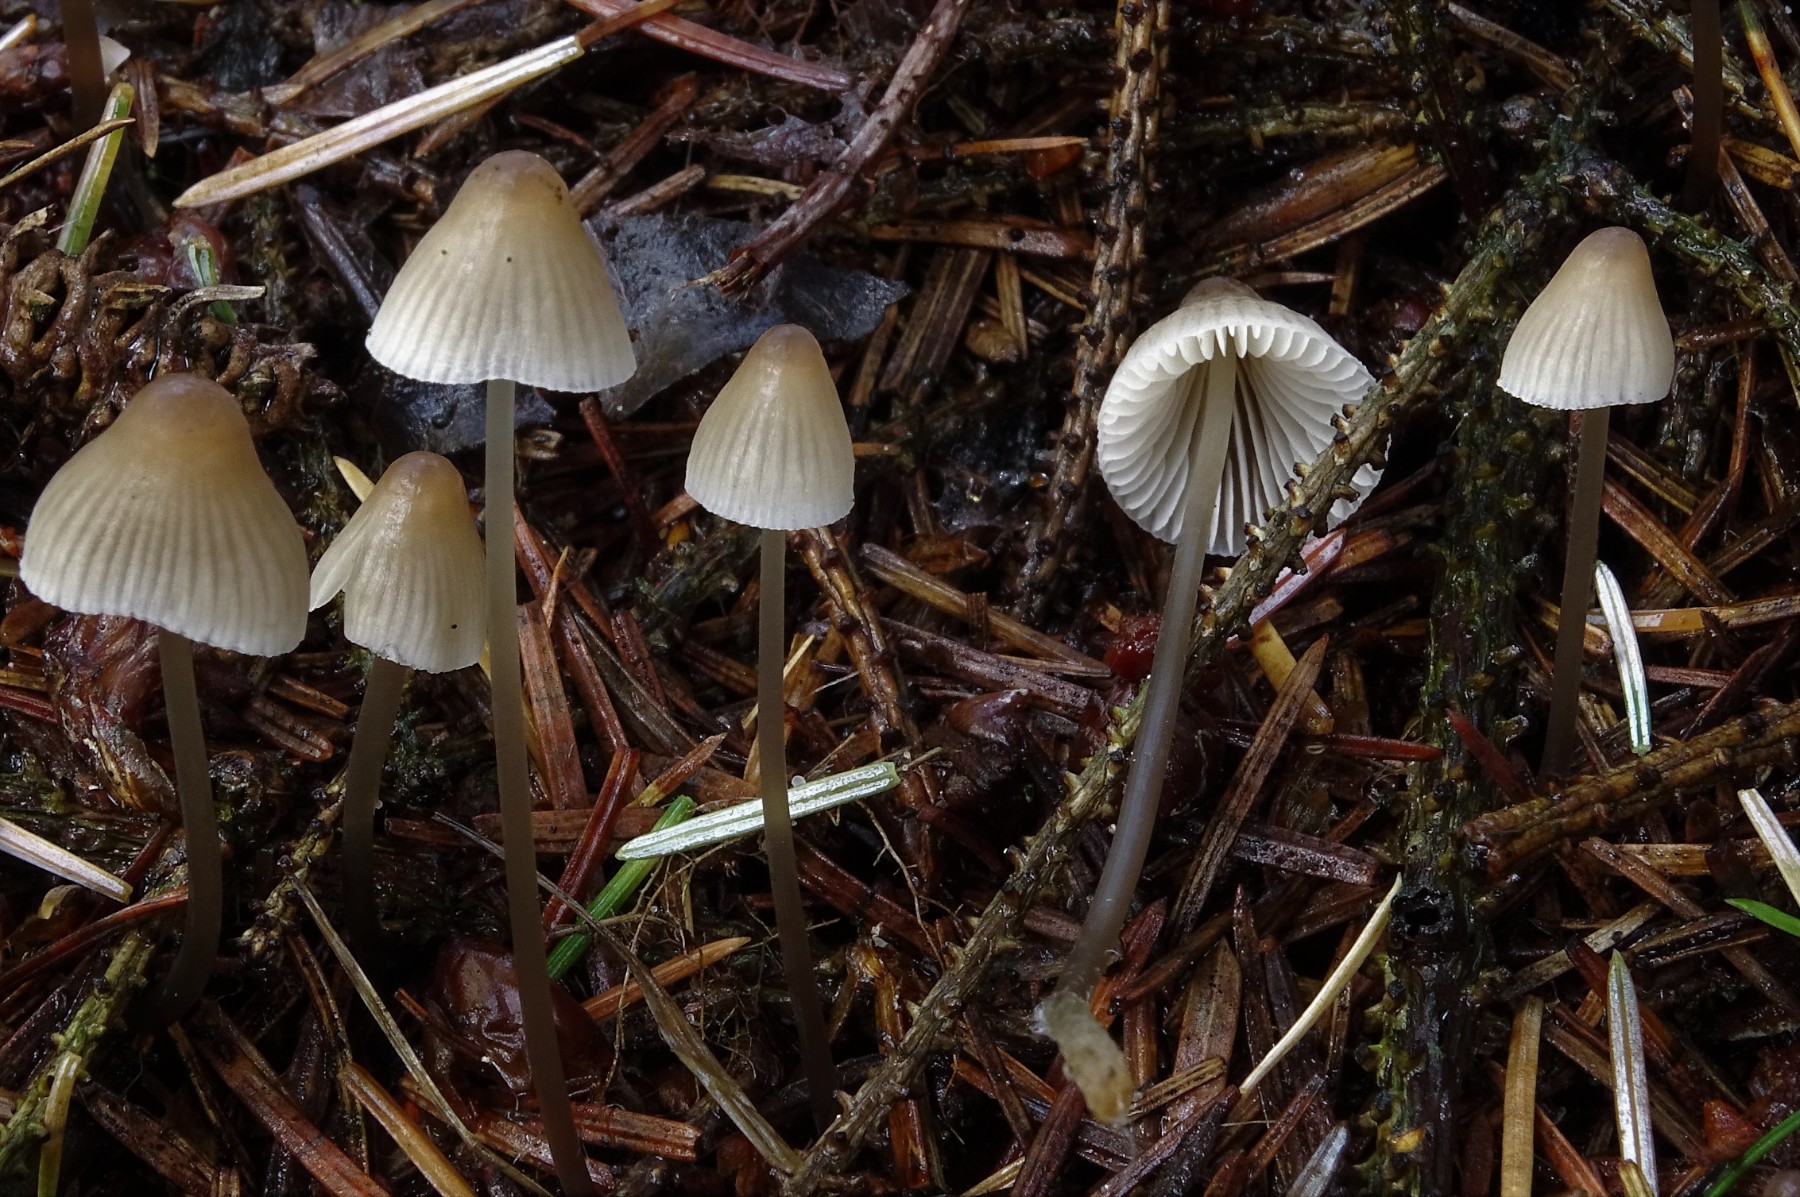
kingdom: Fungi
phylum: Basidiomycota
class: Agaricomycetes
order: Agaricales
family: Mycenaceae
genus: Mycena
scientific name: Mycena metata
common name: rødlig huesvamp
